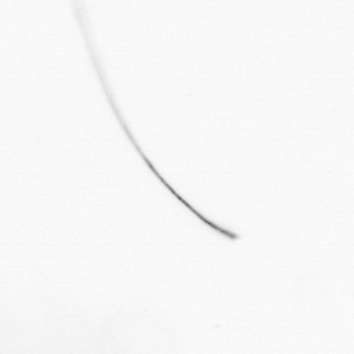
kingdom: Chromista
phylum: Ochrophyta
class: Bacillariophyceae
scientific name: Bacillariophyceae
